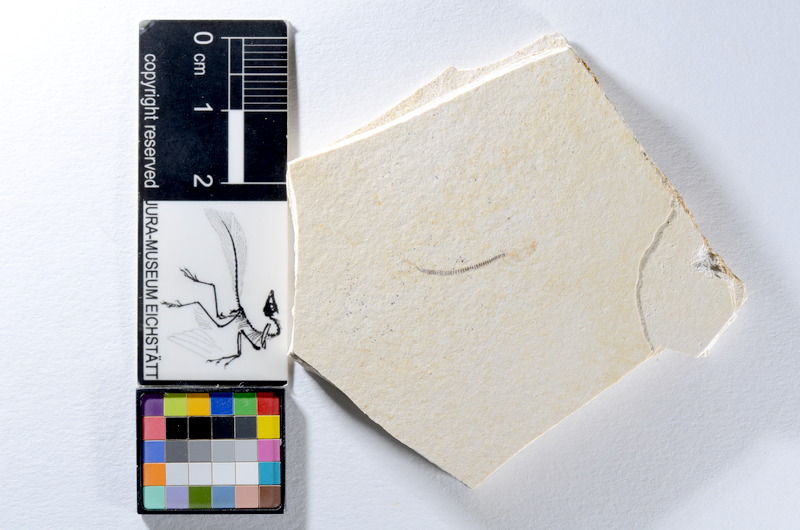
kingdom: Animalia
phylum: Chordata
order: Salmoniformes
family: Orthogonikleithridae
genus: Orthogonikleithrus
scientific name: Orthogonikleithrus hoelli
